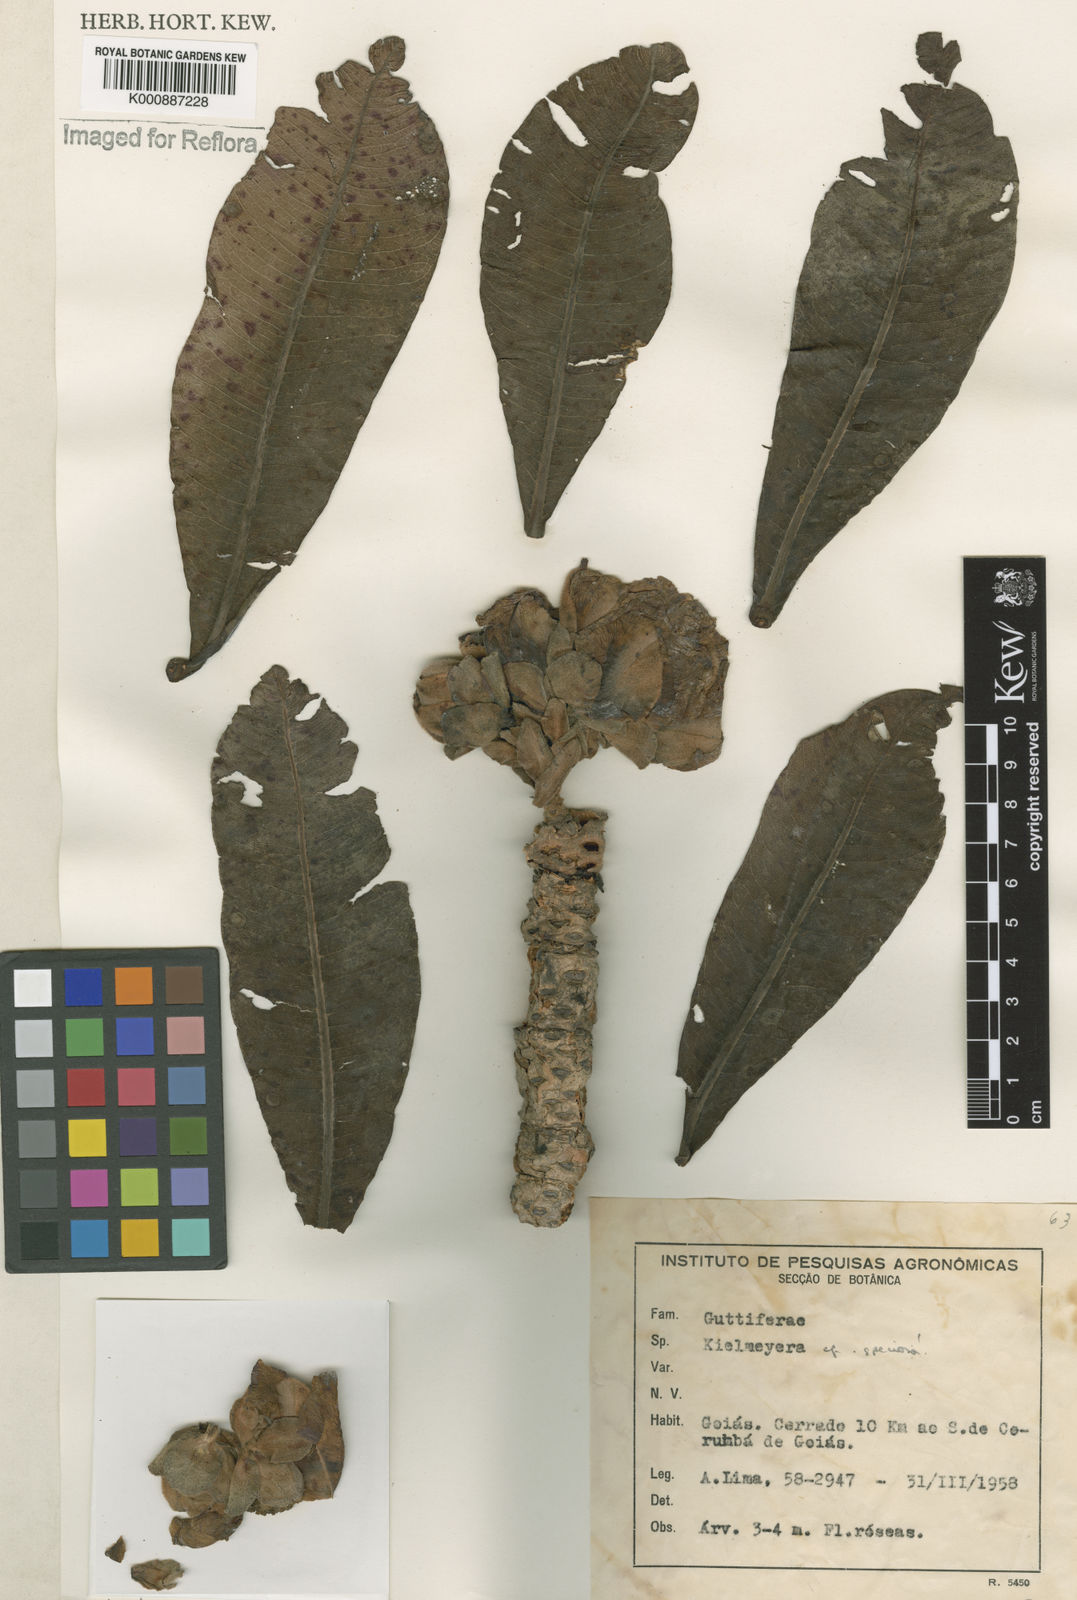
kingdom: Plantae
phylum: Tracheophyta
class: Magnoliopsida
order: Malpighiales
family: Calophyllaceae
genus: Kielmeyera
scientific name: Kielmeyera speciosa
